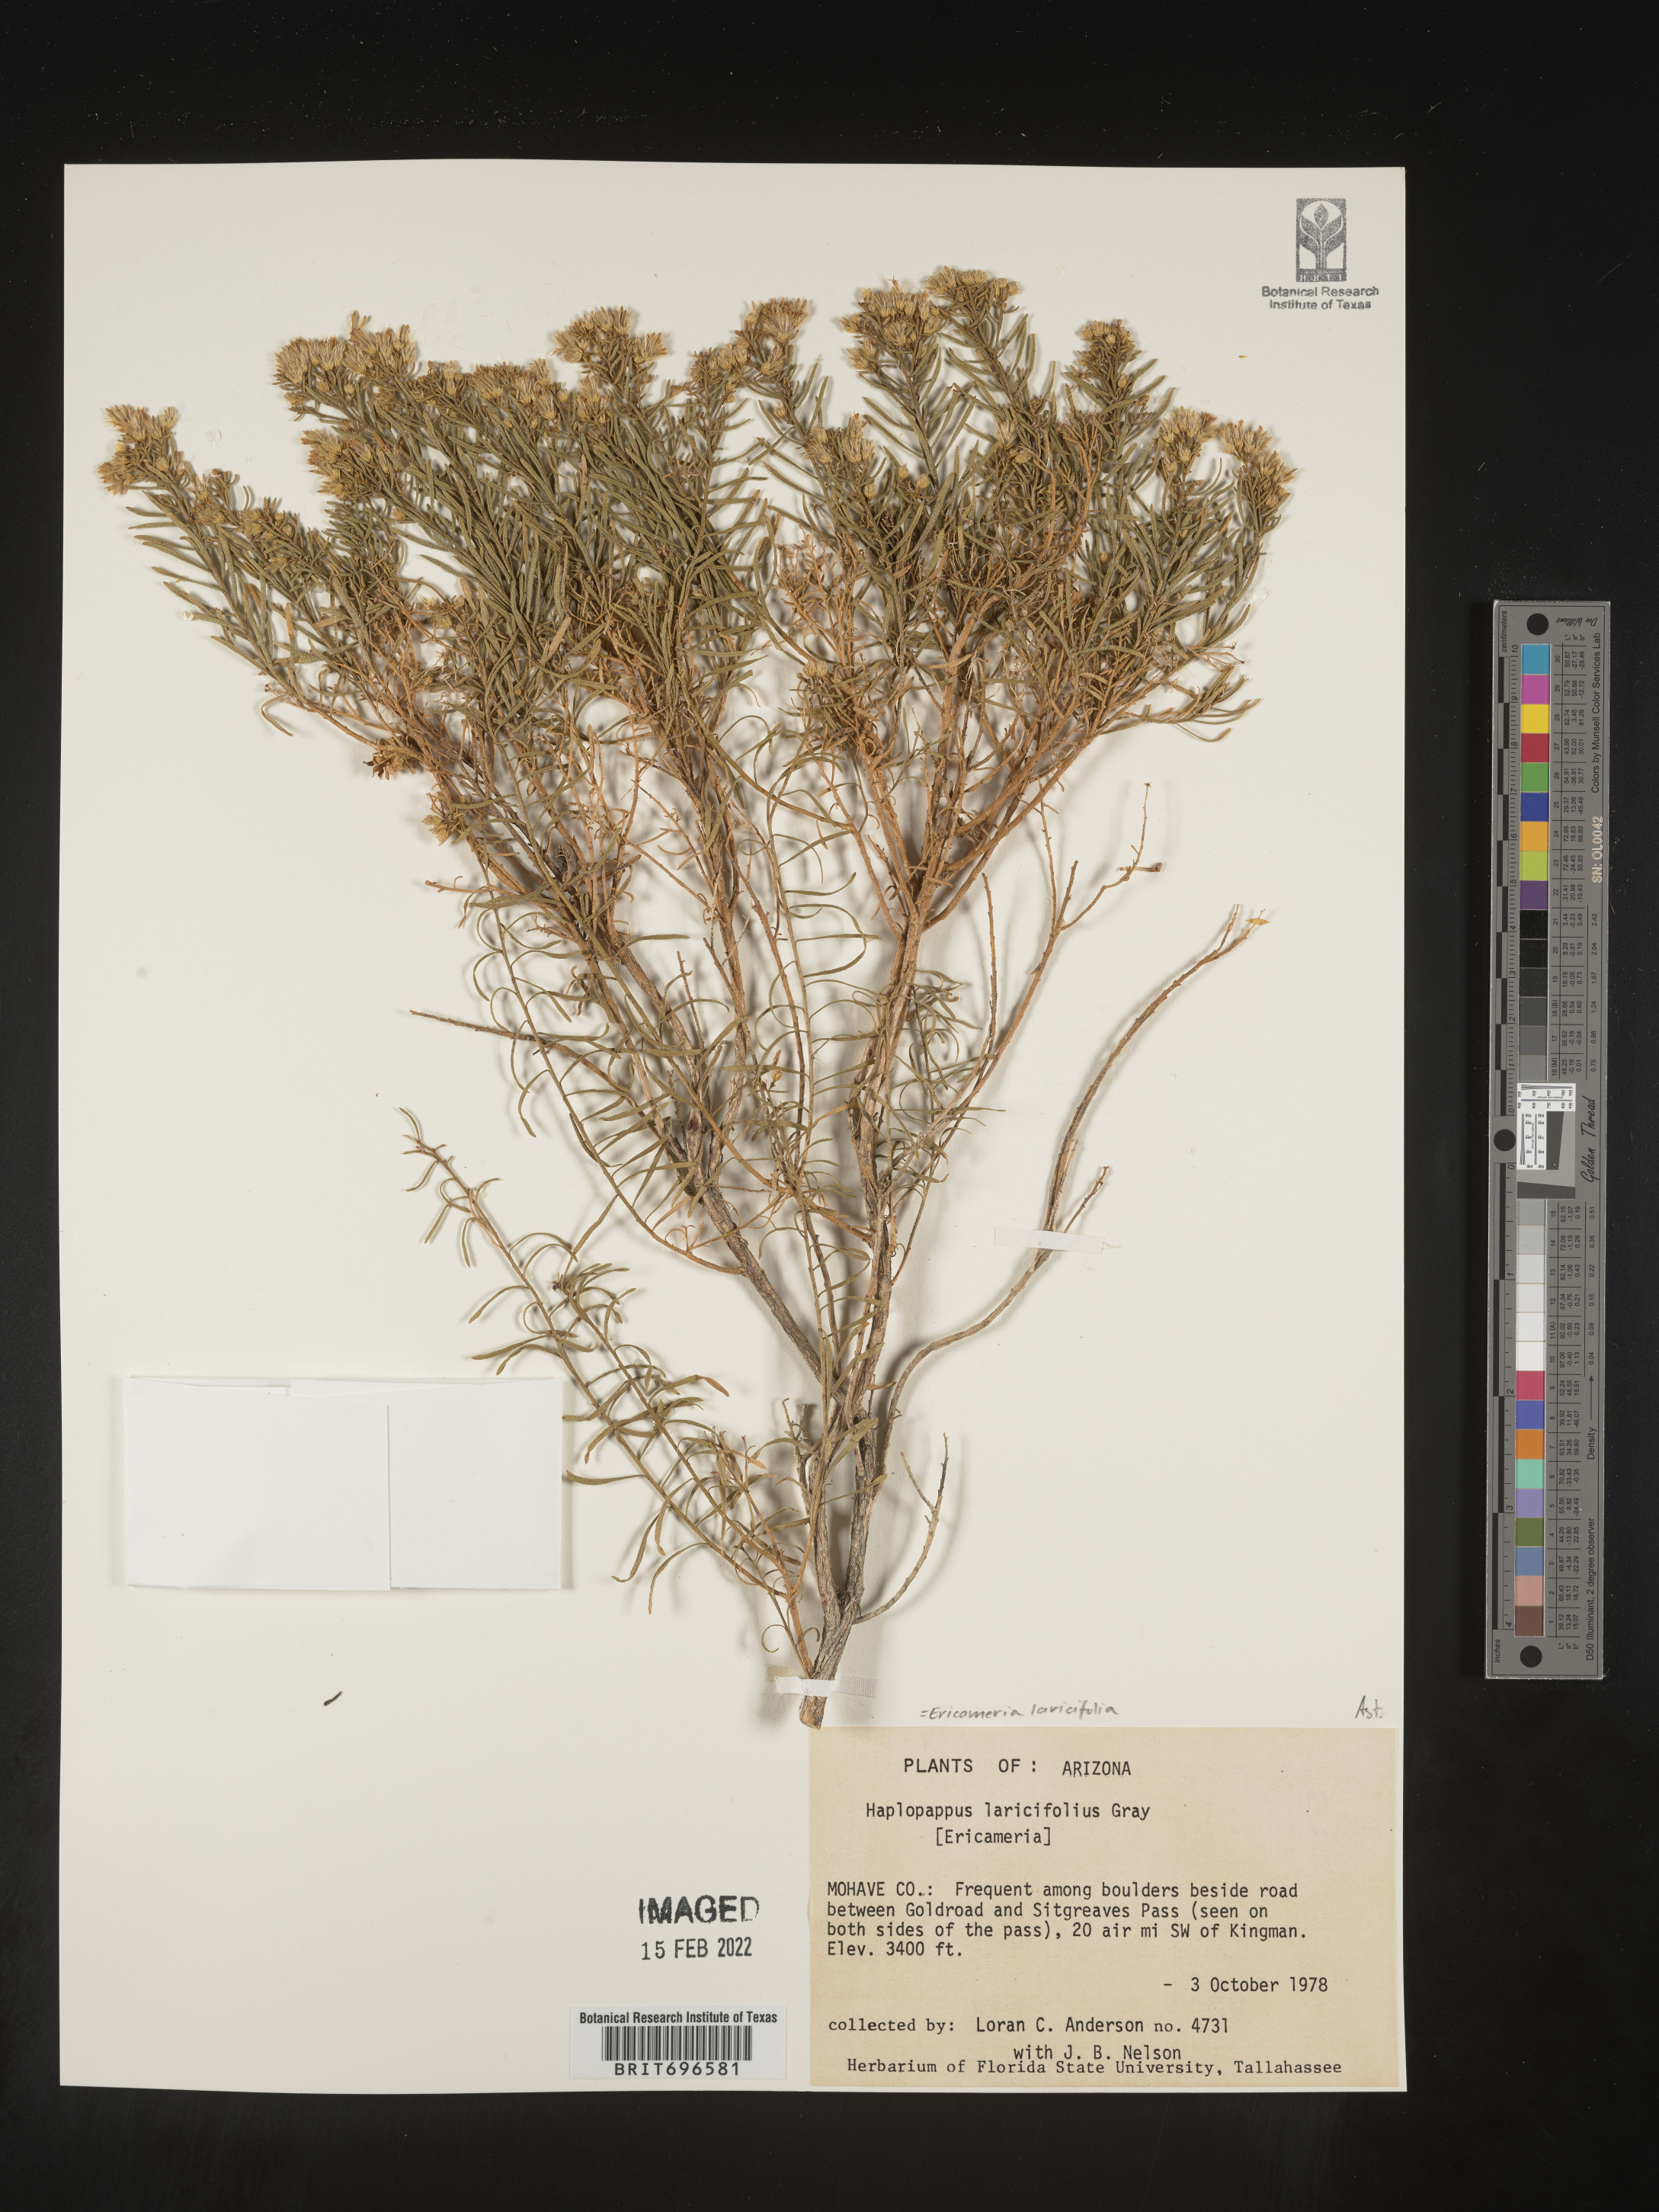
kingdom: Plantae
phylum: Tracheophyta
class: Magnoliopsida
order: Asterales
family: Asteraceae
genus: Ericameria
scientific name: Ericameria laricifolia
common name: Turpentine-bush
